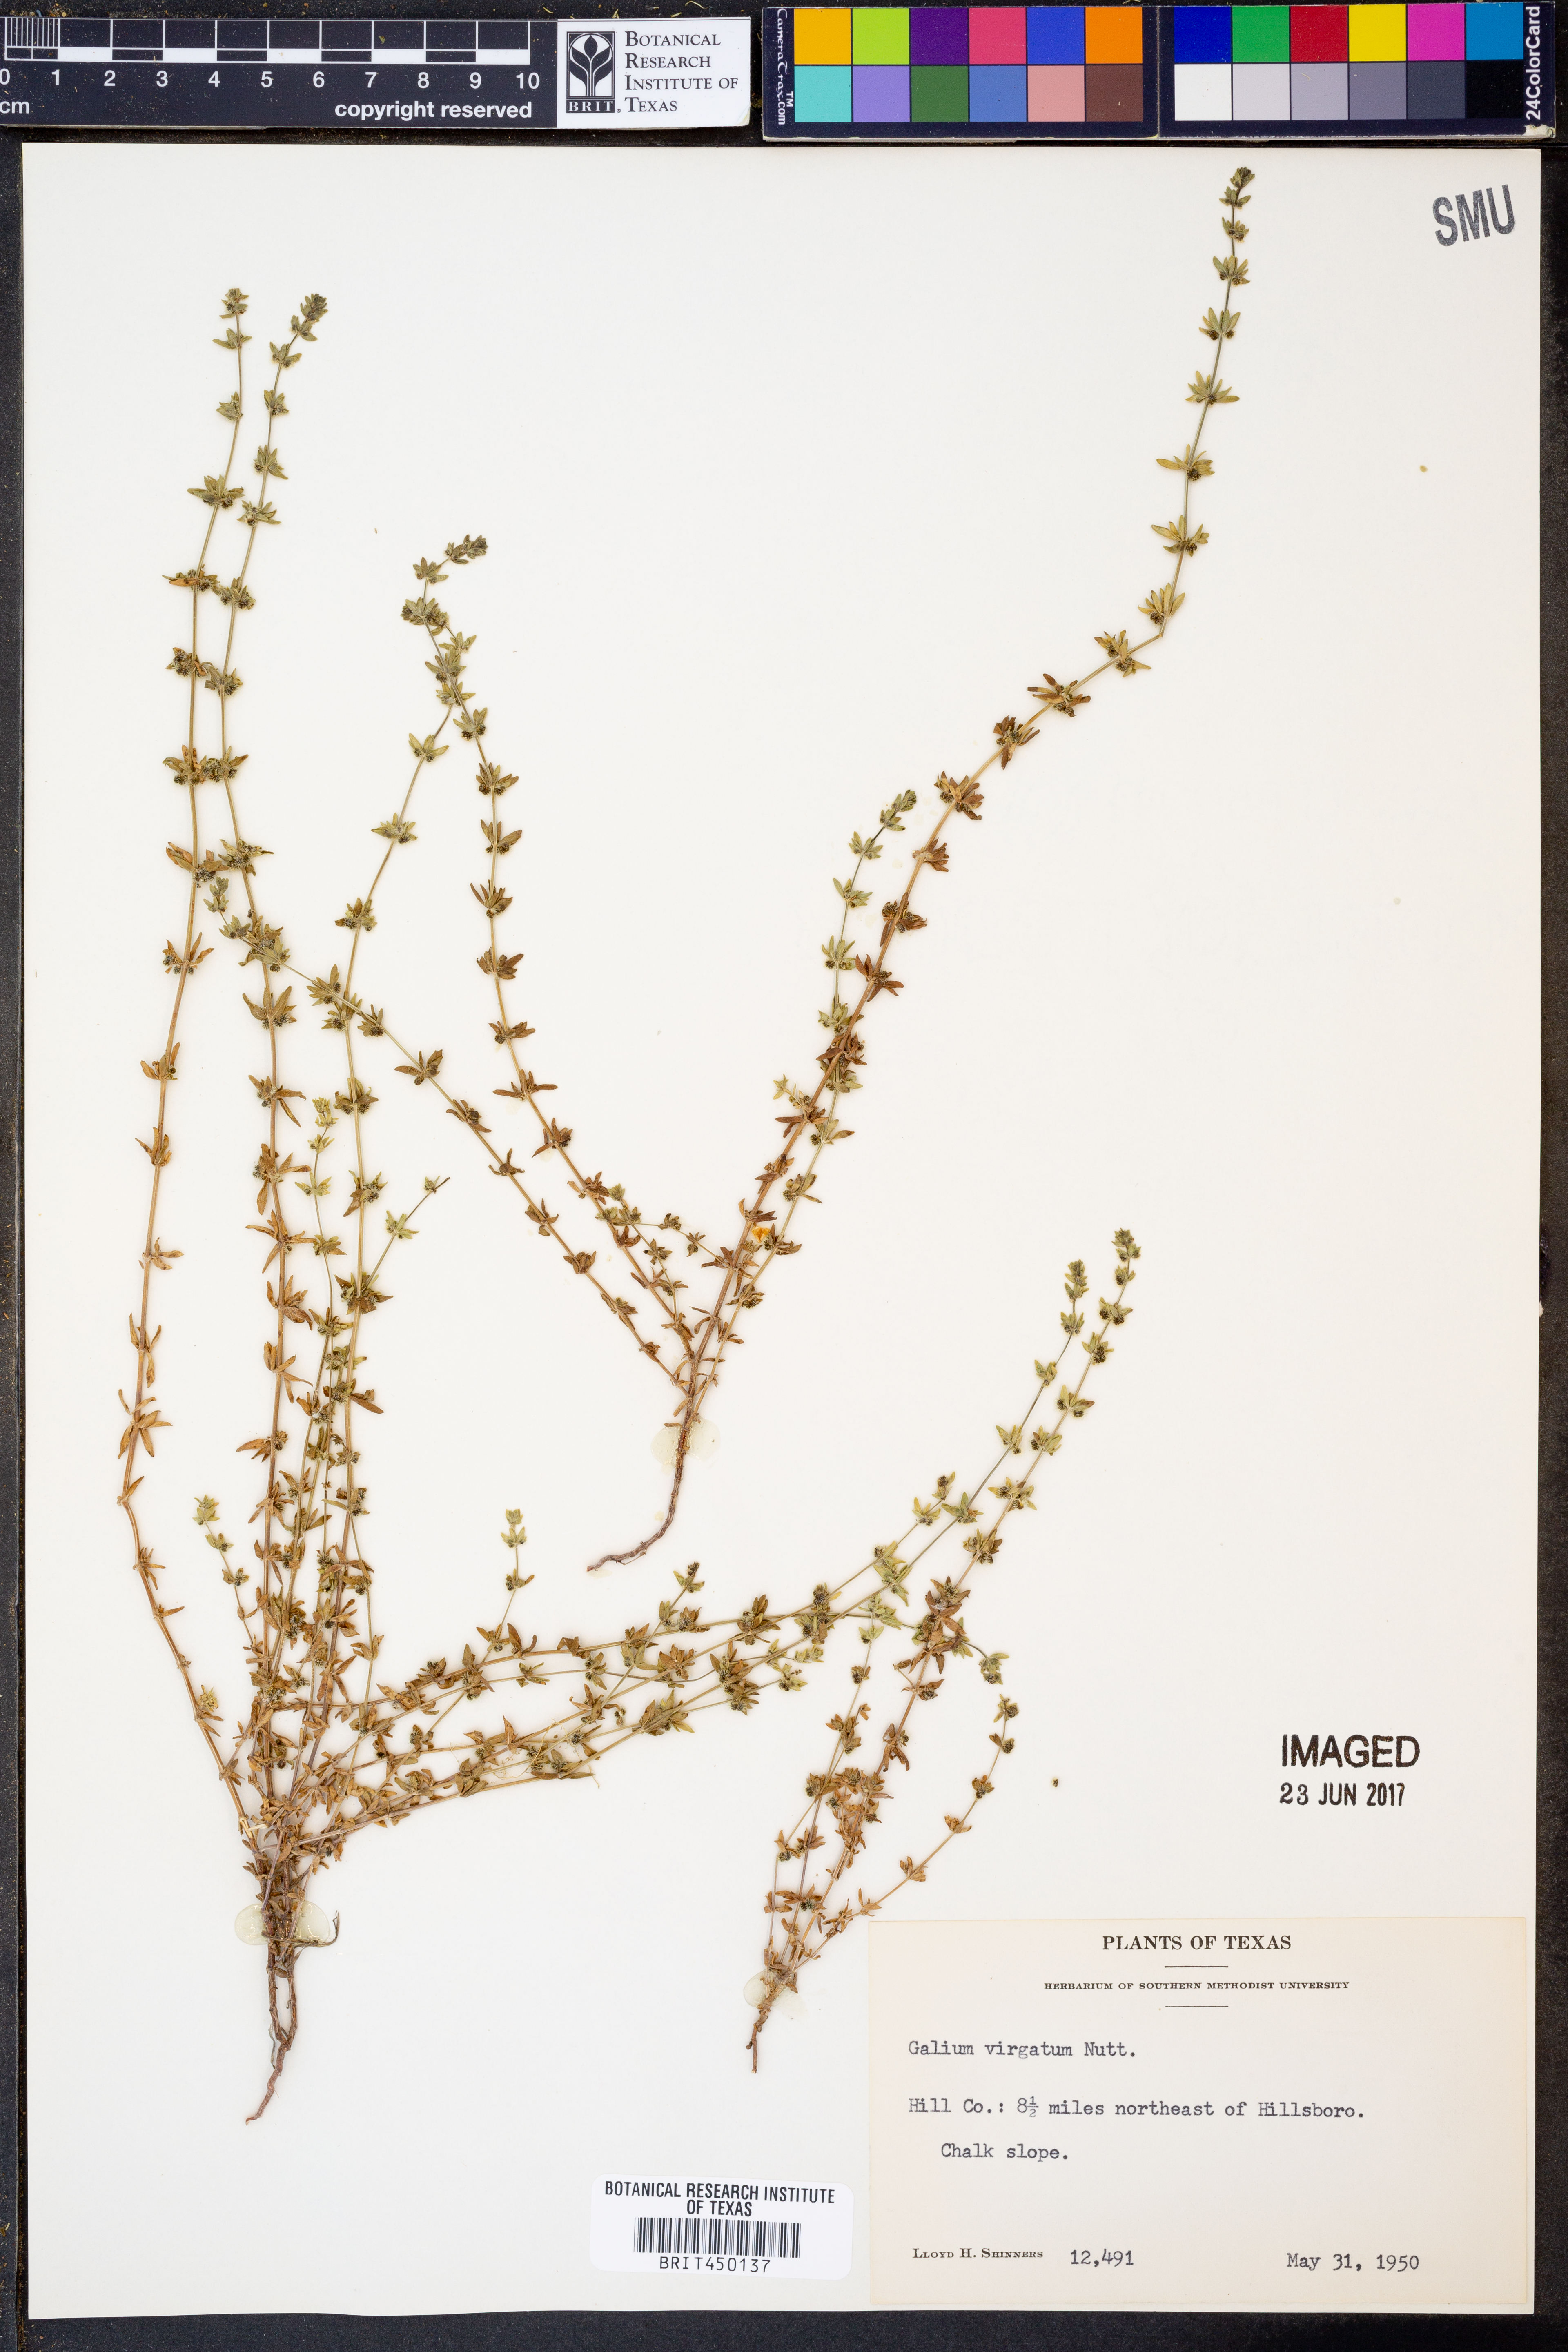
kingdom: Plantae
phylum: Tracheophyta
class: Magnoliopsida
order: Gentianales
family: Rubiaceae
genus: Galium
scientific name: Galium virgatum
